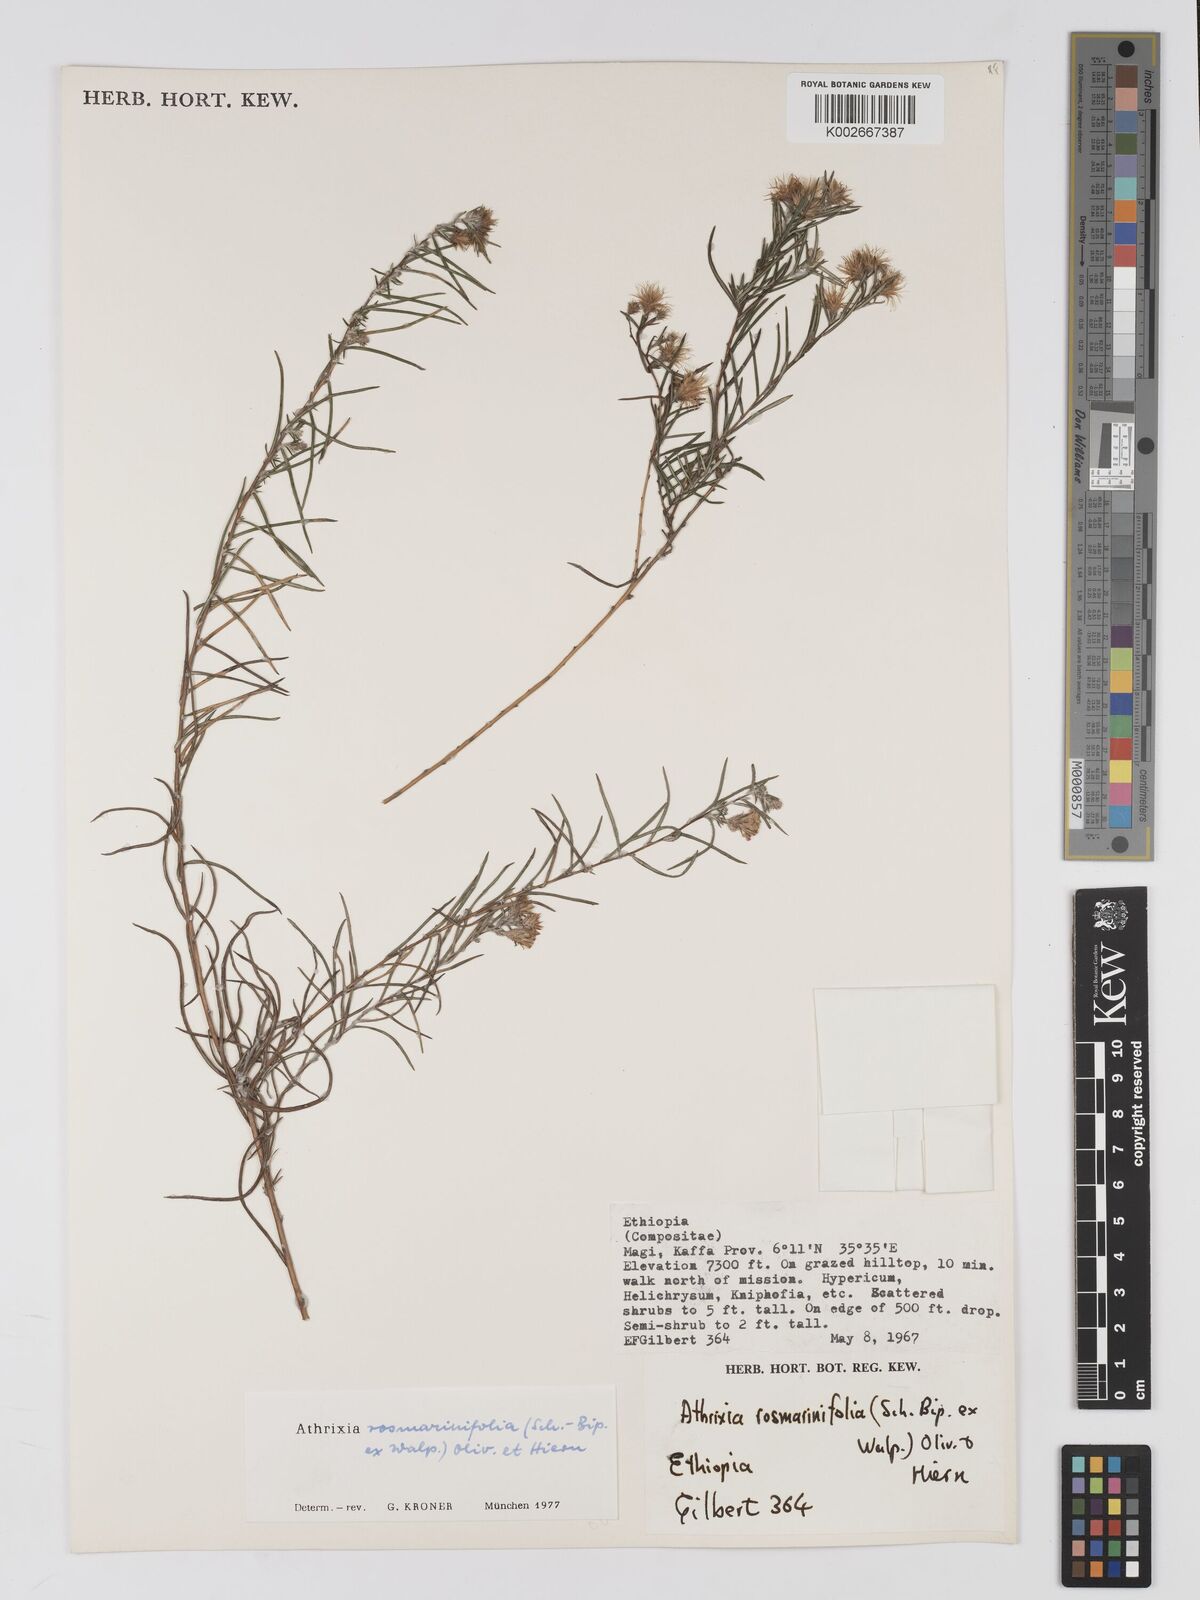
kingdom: Plantae
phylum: Tracheophyta
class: Magnoliopsida
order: Asterales
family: Asteraceae
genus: Athrixia
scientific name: Athrixia rosmarinifolia
